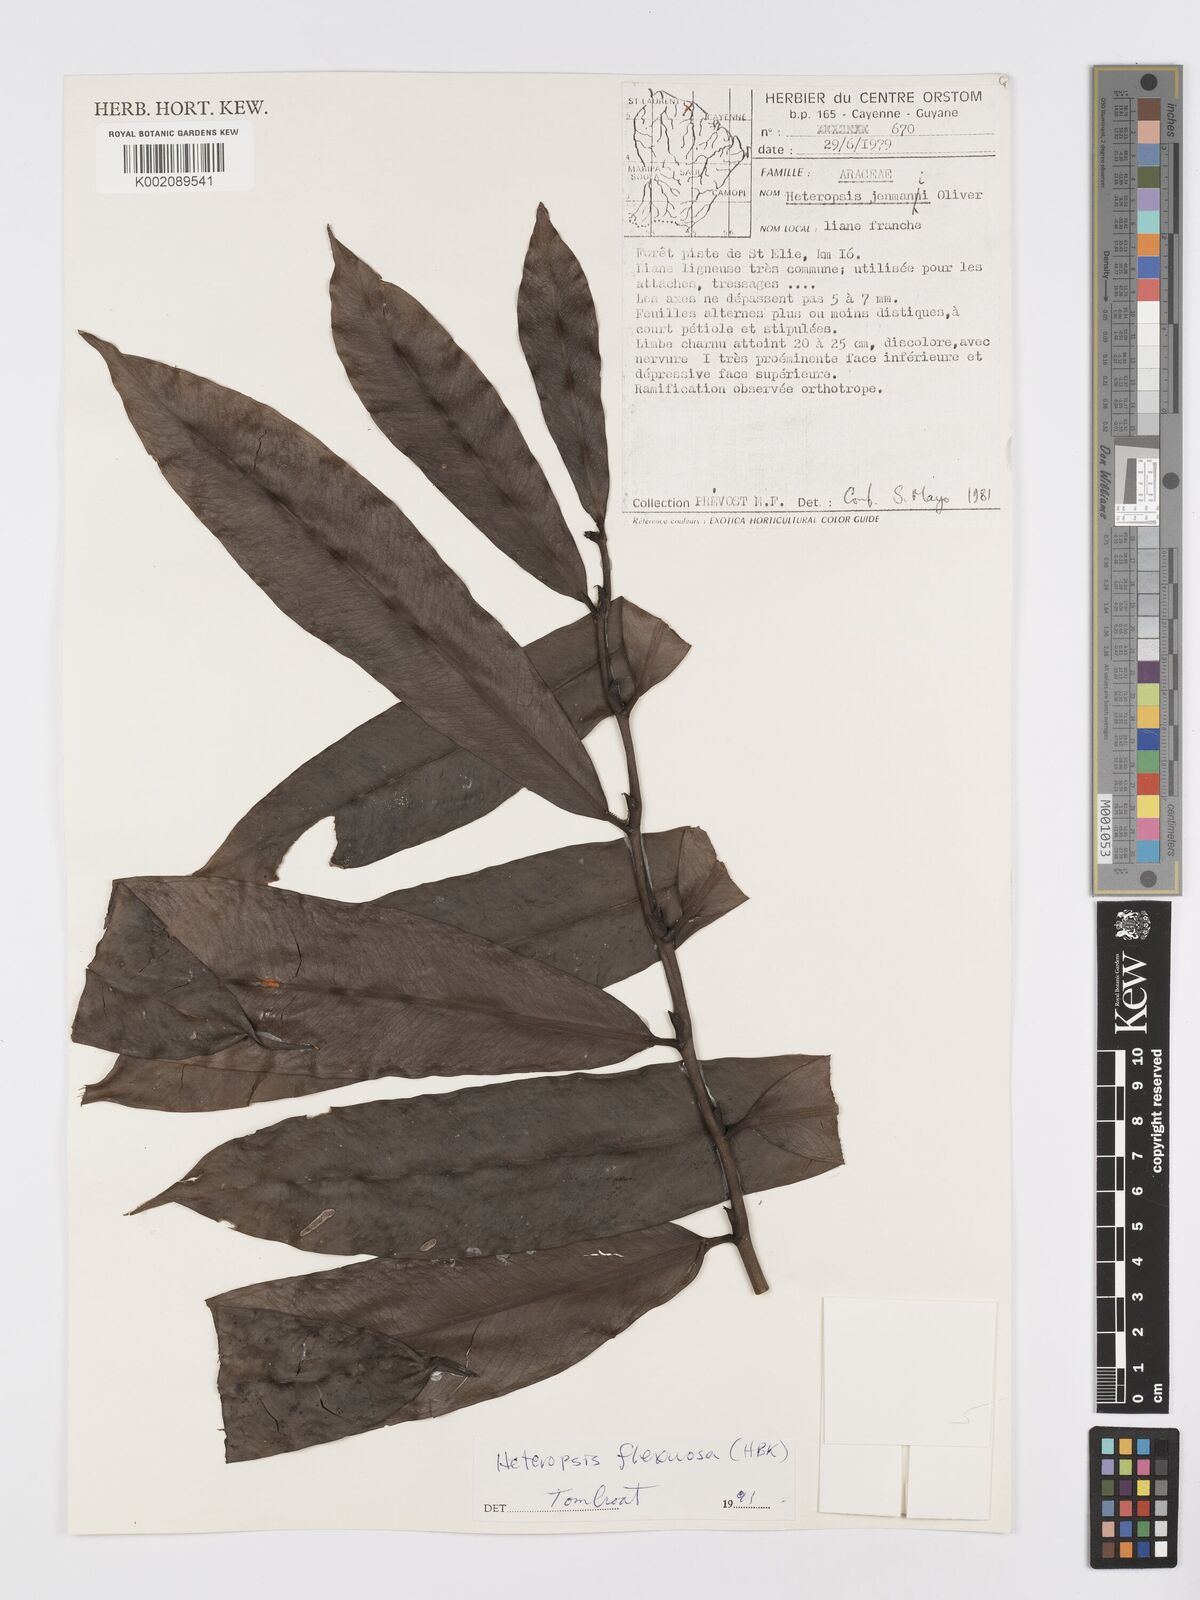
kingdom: Plantae
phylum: Tracheophyta
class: Liliopsida
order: Alismatales
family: Araceae
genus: Heteropsis
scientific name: Heteropsis flexuosa
